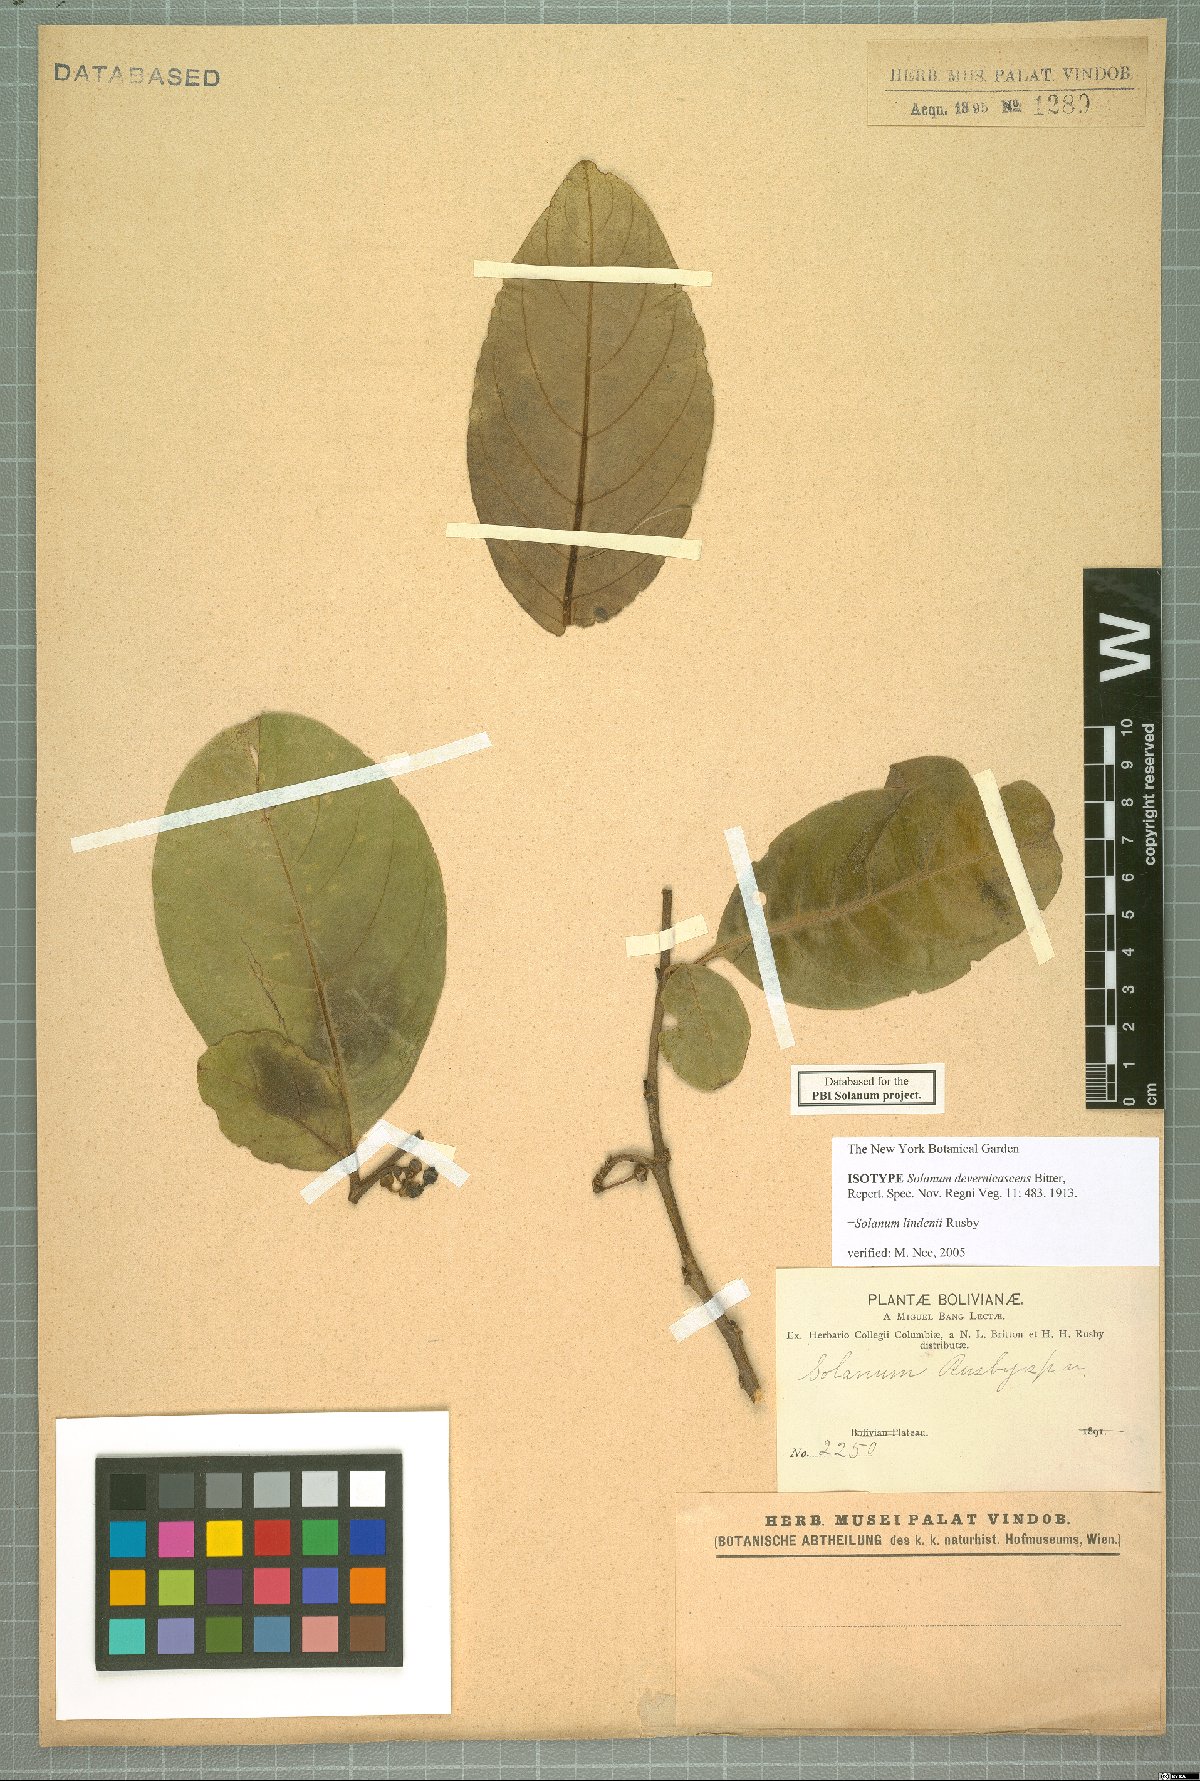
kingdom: Plantae
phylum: Tracheophyta
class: Magnoliopsida
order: Solanales
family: Solanaceae
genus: Solanum
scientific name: Solanum lindenii
